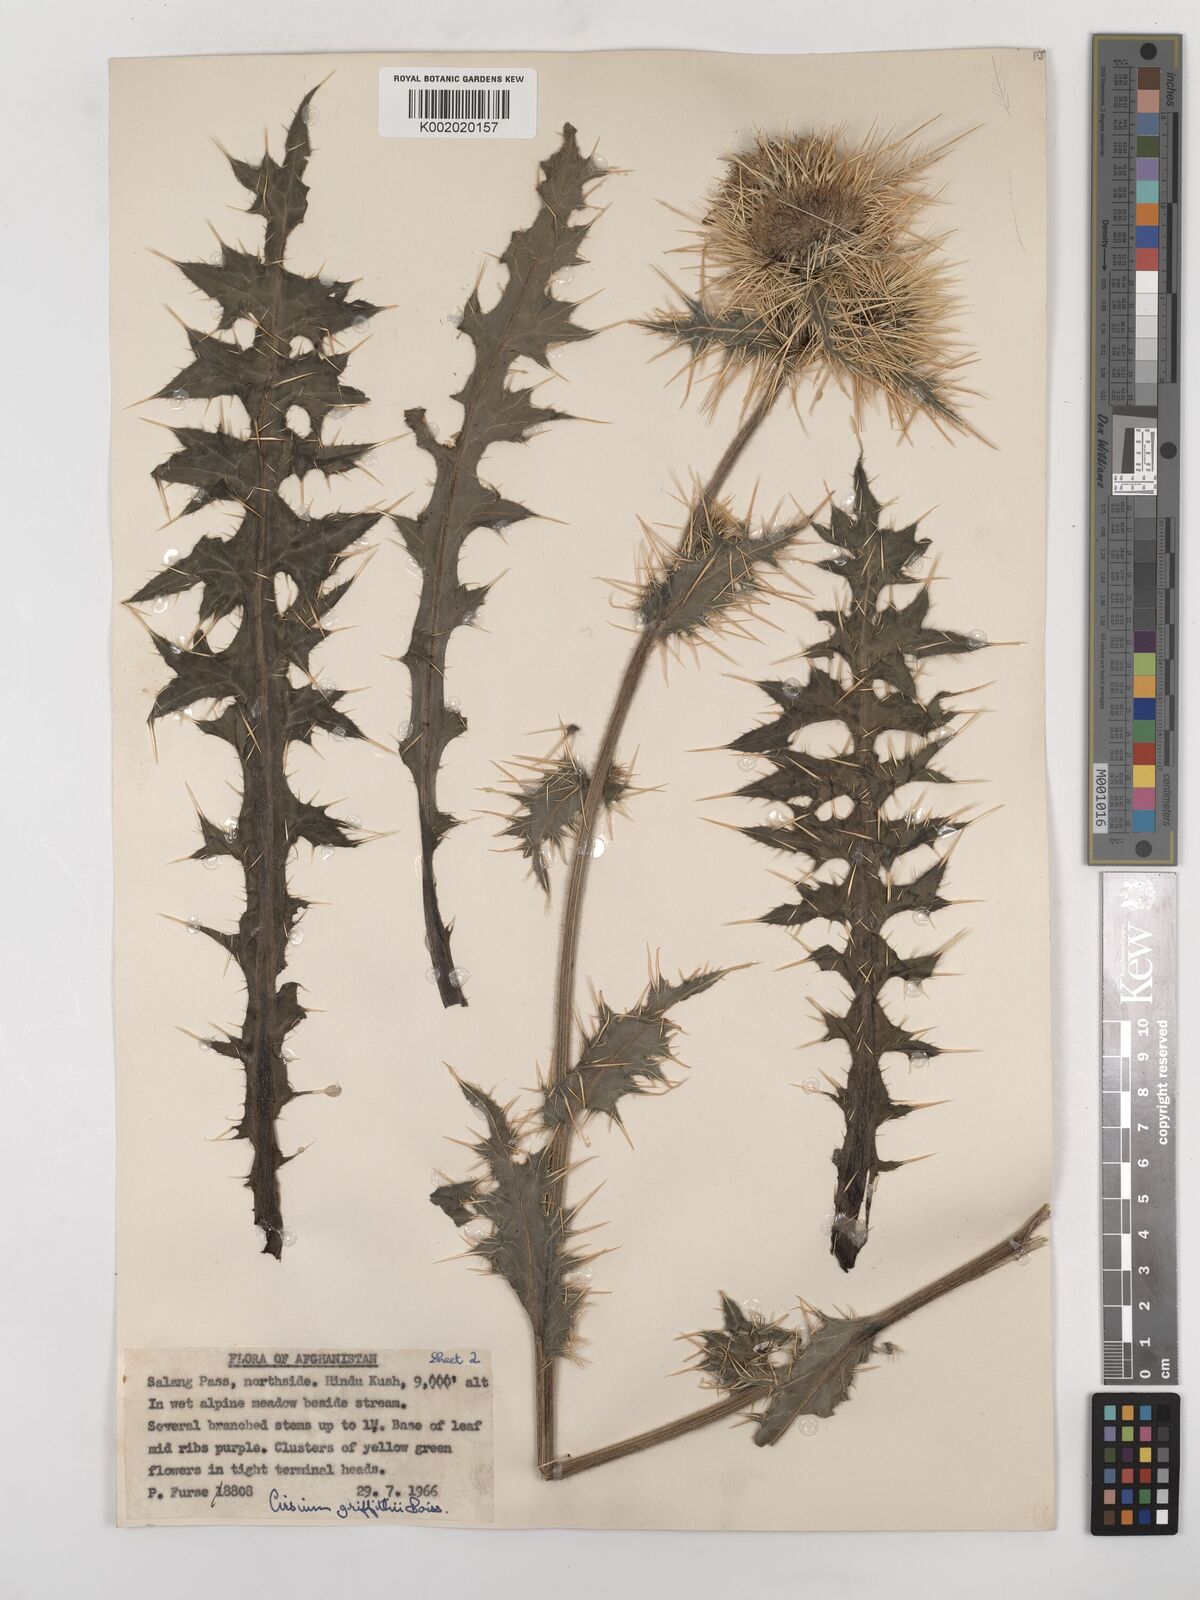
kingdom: Plantae
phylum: Tracheophyta
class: Magnoliopsida
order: Asterales
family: Asteraceae
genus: Lophiolepis
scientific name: Lophiolepis griffithii
